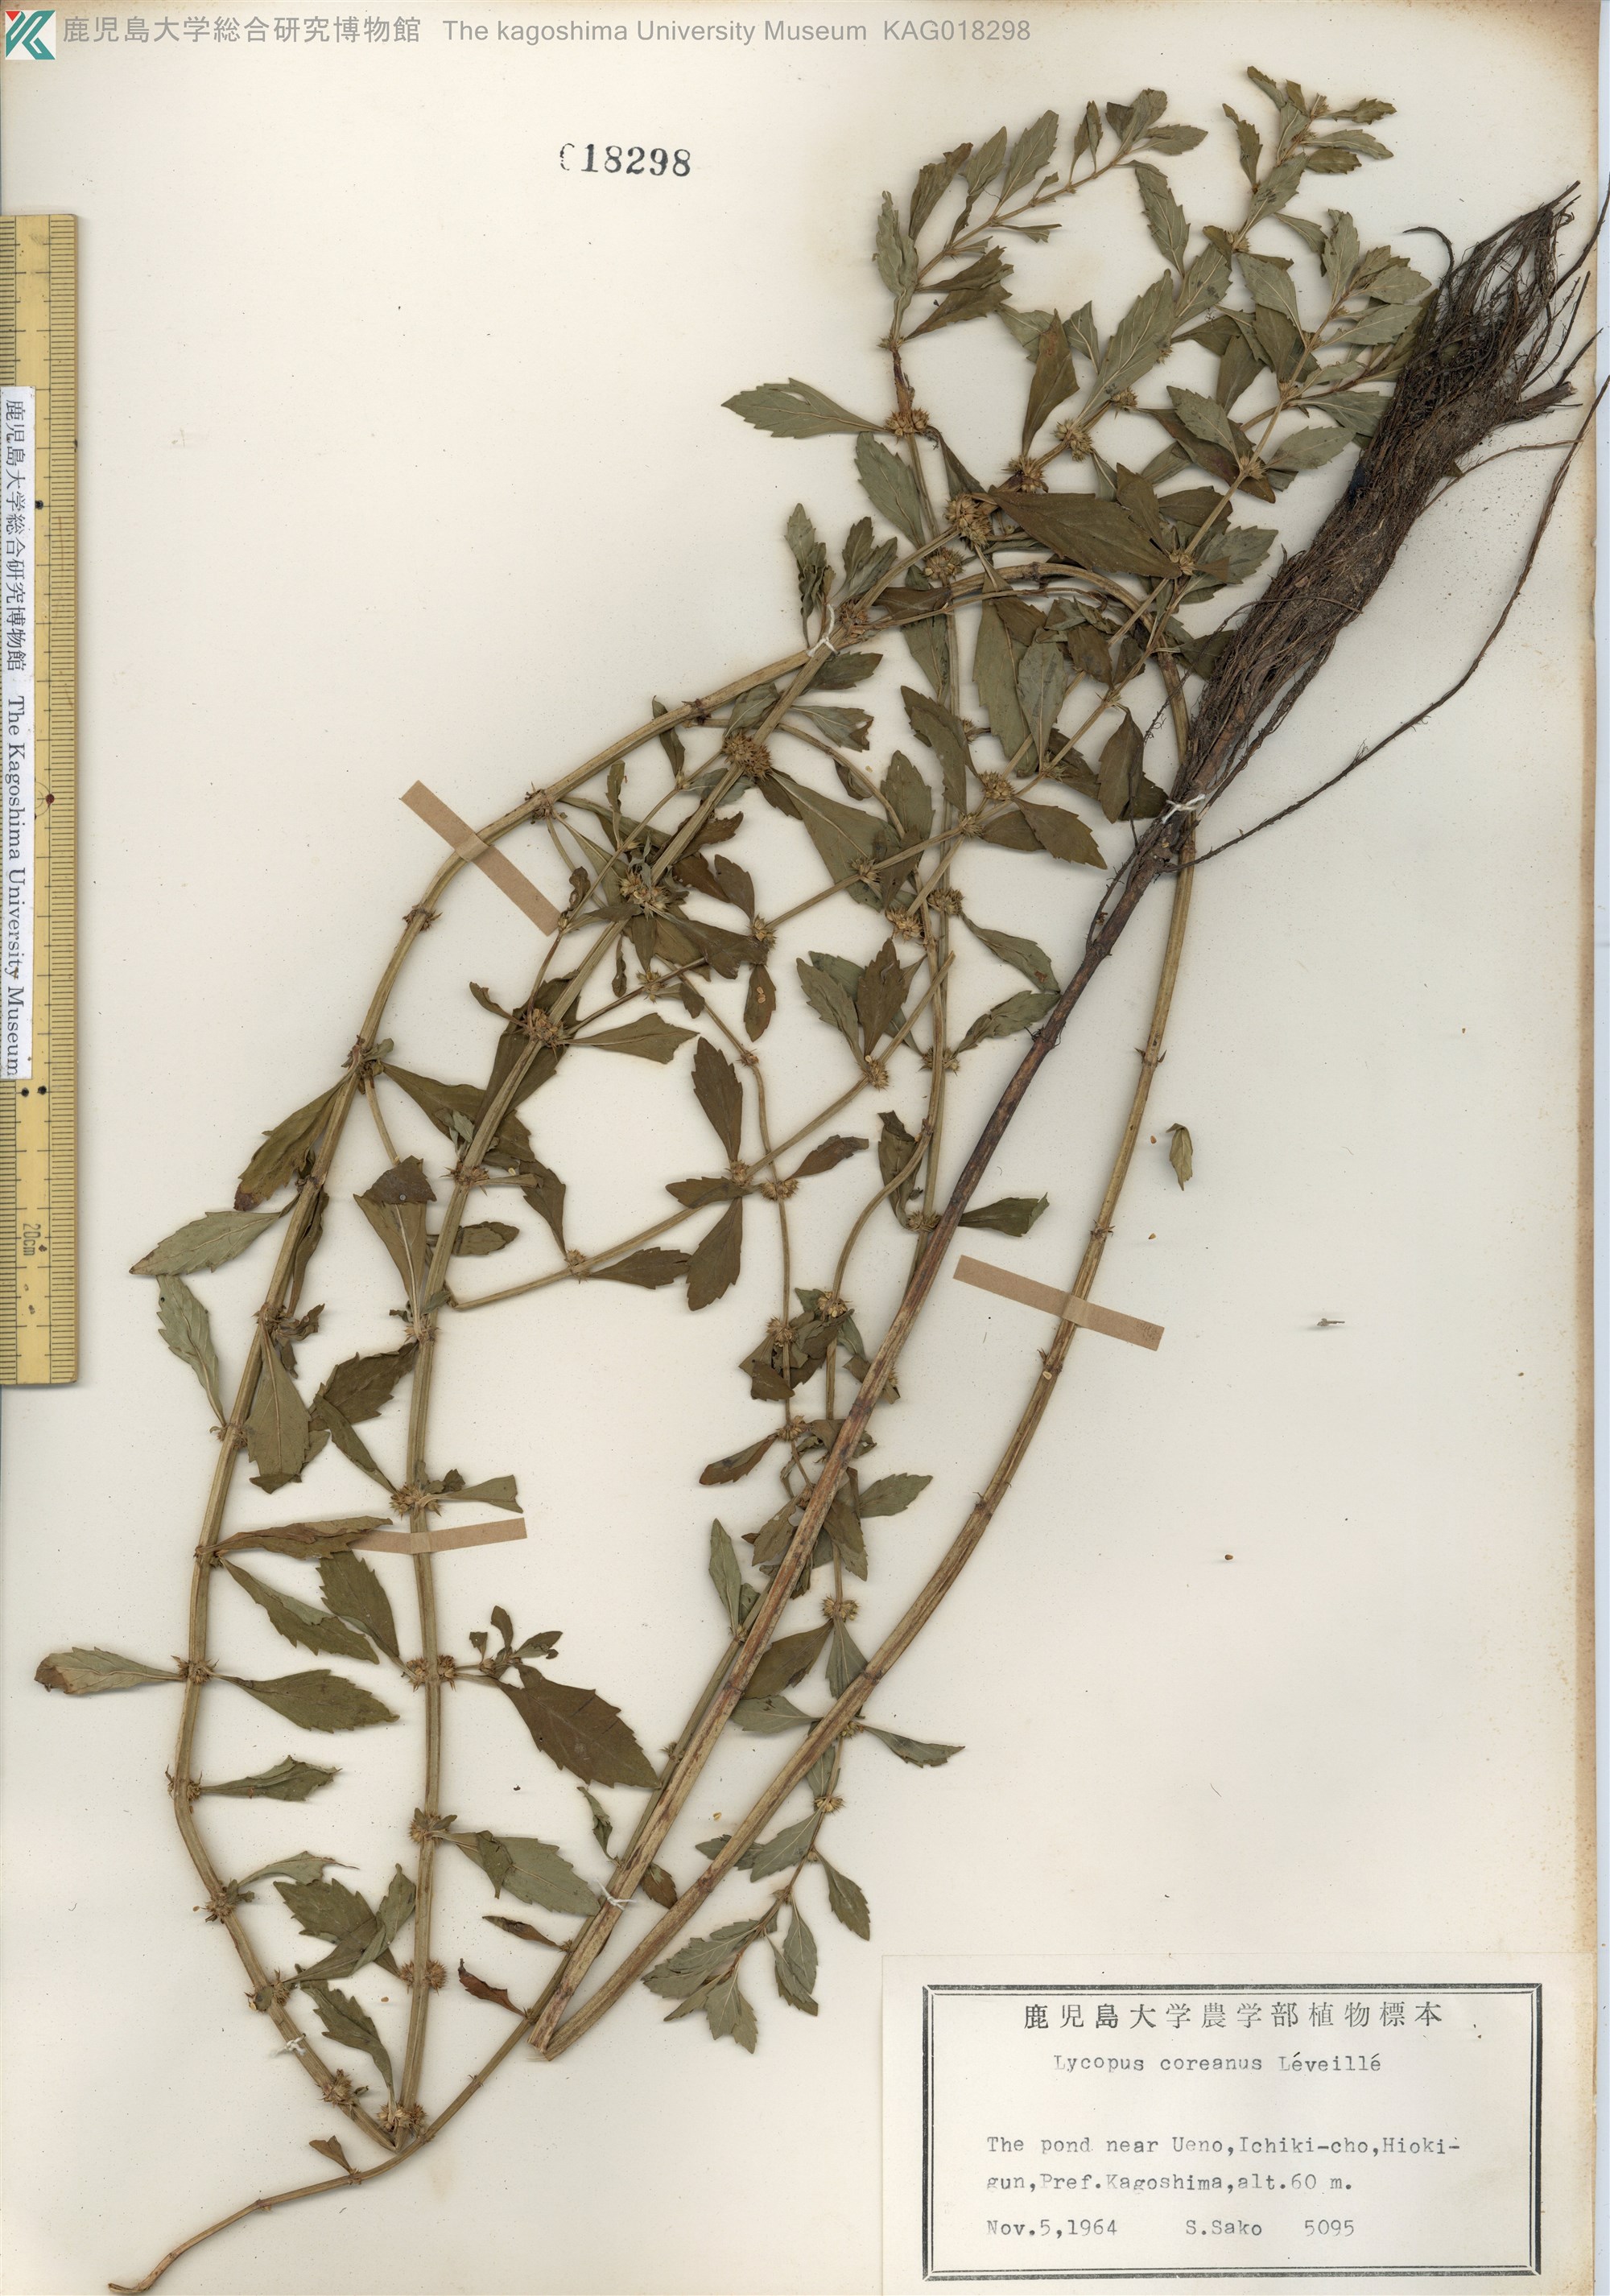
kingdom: Plantae
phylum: Tracheophyta
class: Magnoliopsida
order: Lamiales
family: Lamiaceae
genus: Lycopus
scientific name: Lycopus cavaleriei
